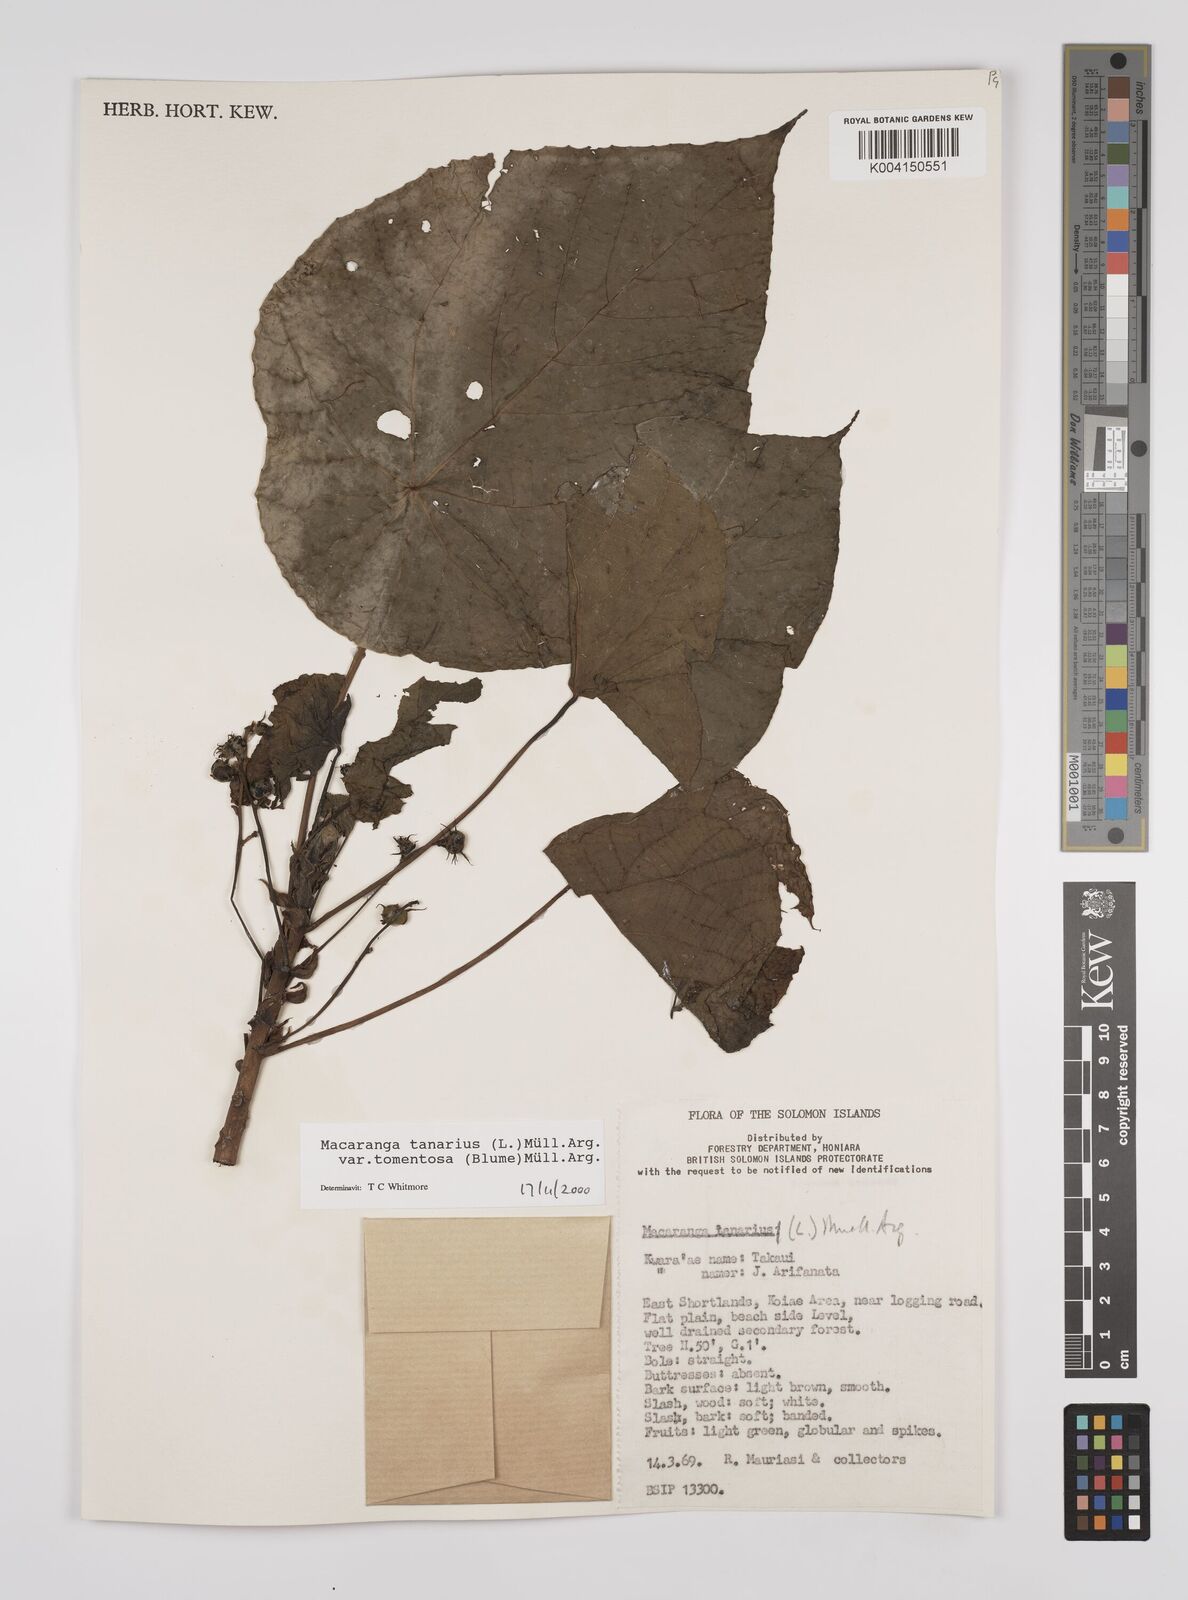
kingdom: Plantae
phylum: Tracheophyta
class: Magnoliopsida
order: Malpighiales
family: Euphorbiaceae
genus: Macaranga
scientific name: Macaranga tanarius
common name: Parasol leaf tree
